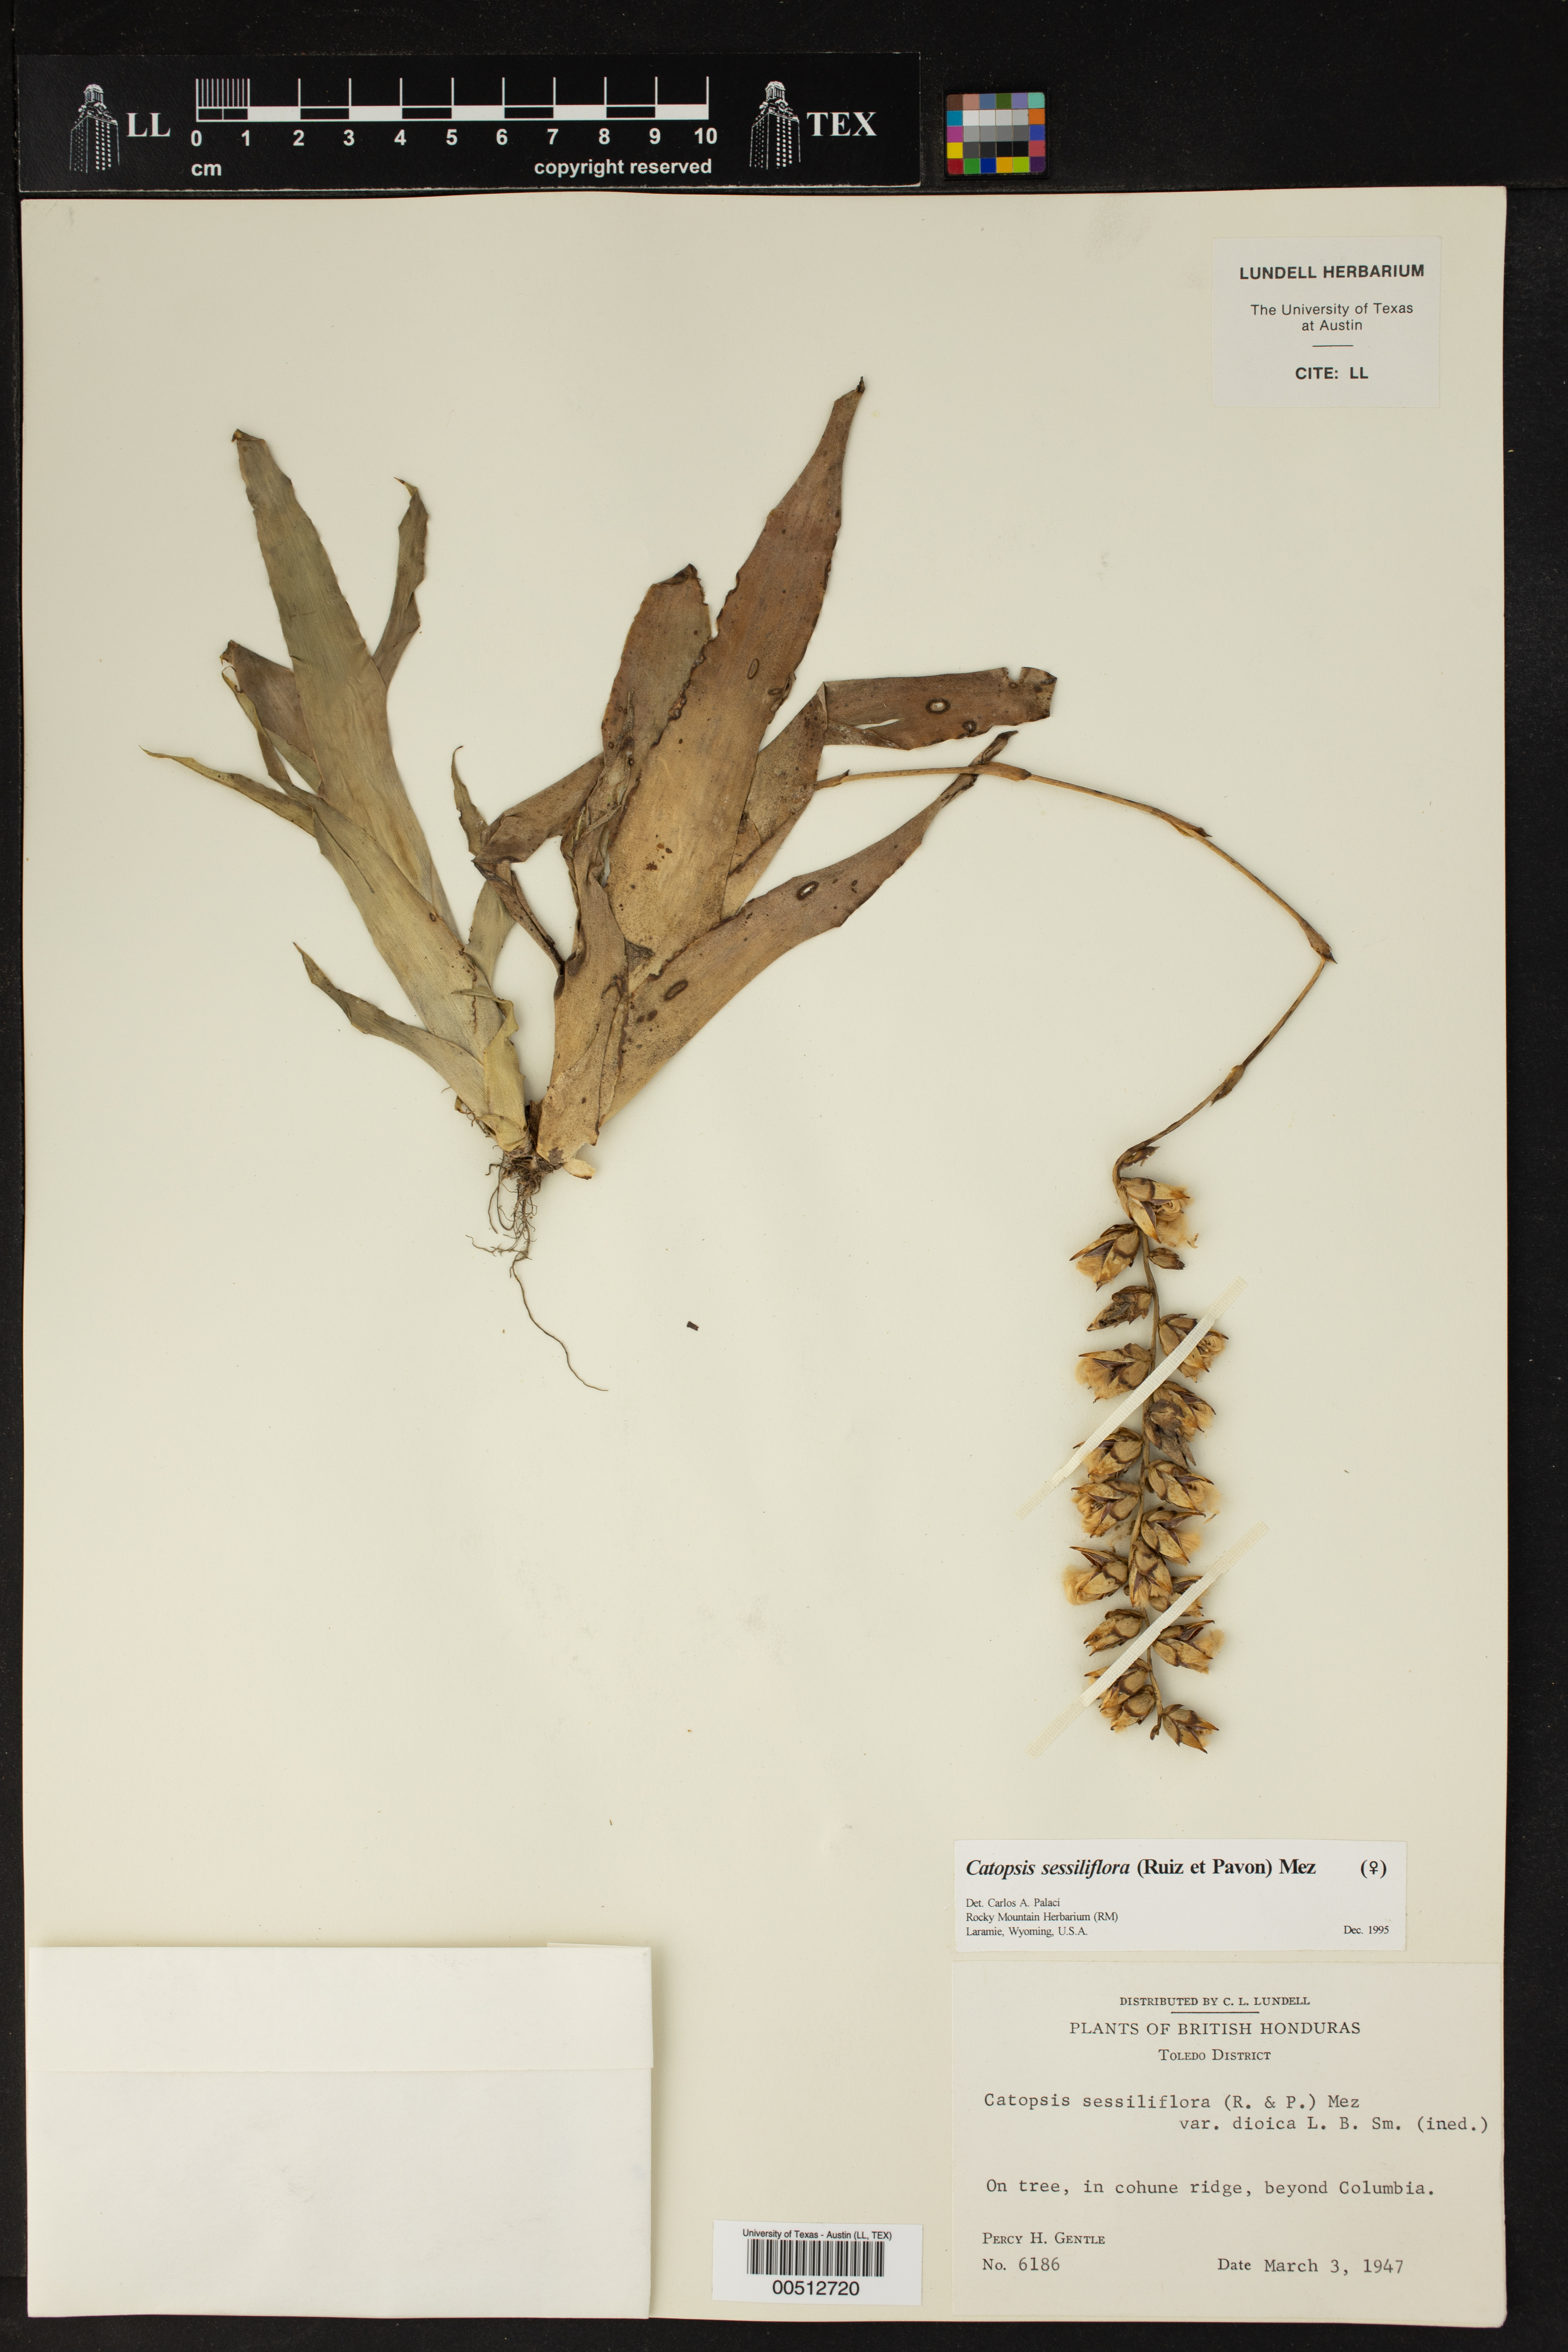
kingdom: Plantae
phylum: Tracheophyta
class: Liliopsida
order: Poales
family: Bromeliaceae
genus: Catopsis
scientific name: Catopsis sessiliflora
